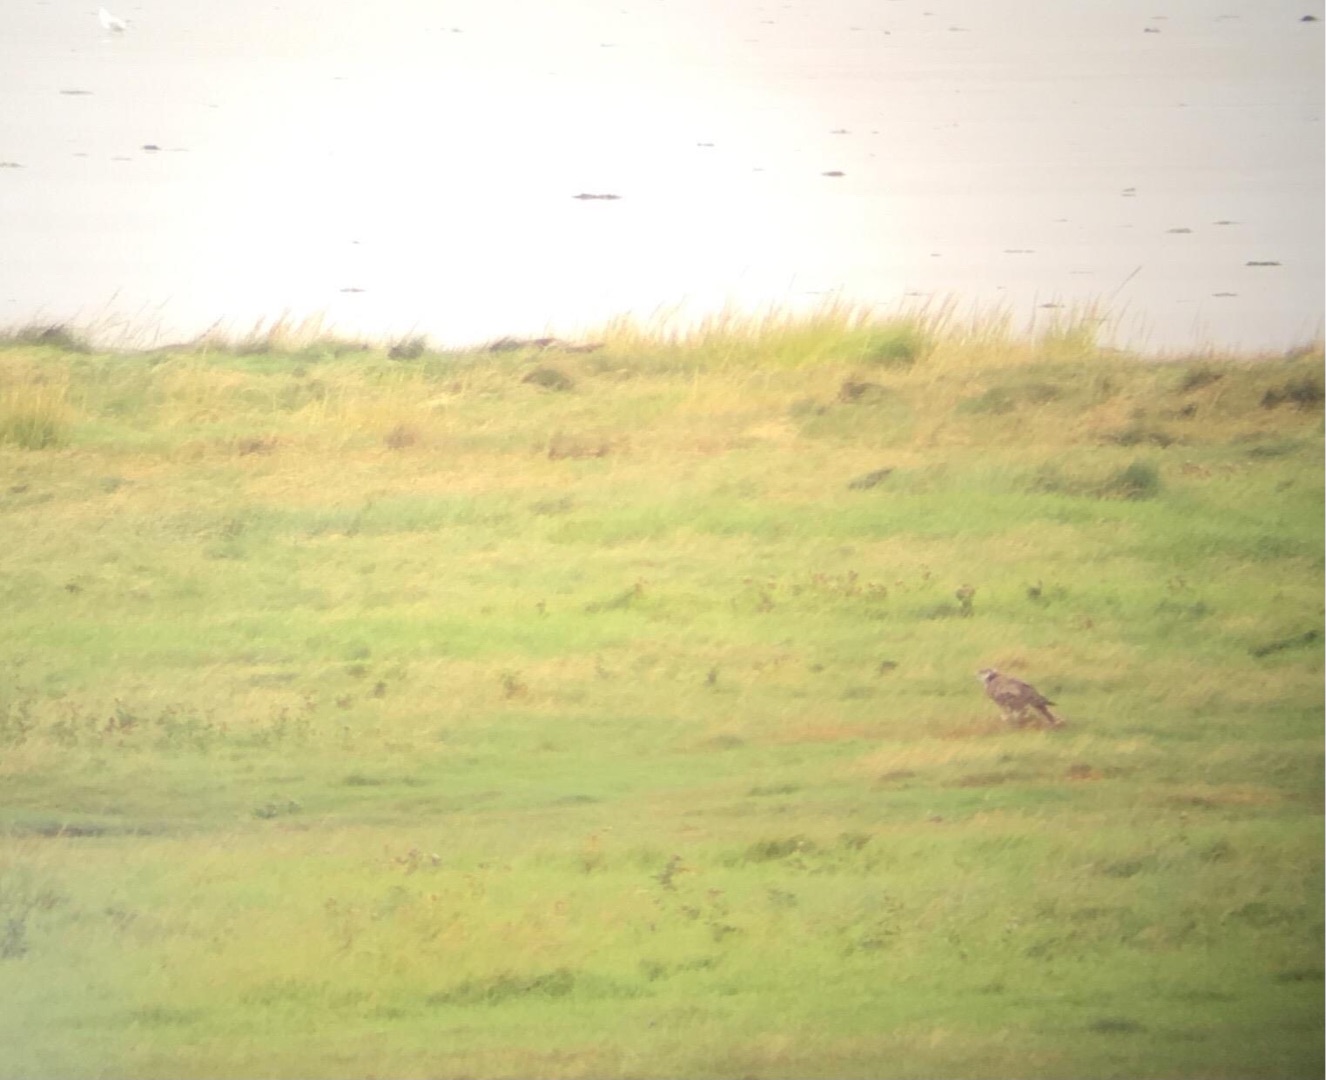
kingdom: Animalia
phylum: Chordata
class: Aves
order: Falconiformes
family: Falconidae
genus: Falco
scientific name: Falco cherrug
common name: Slagfalk
